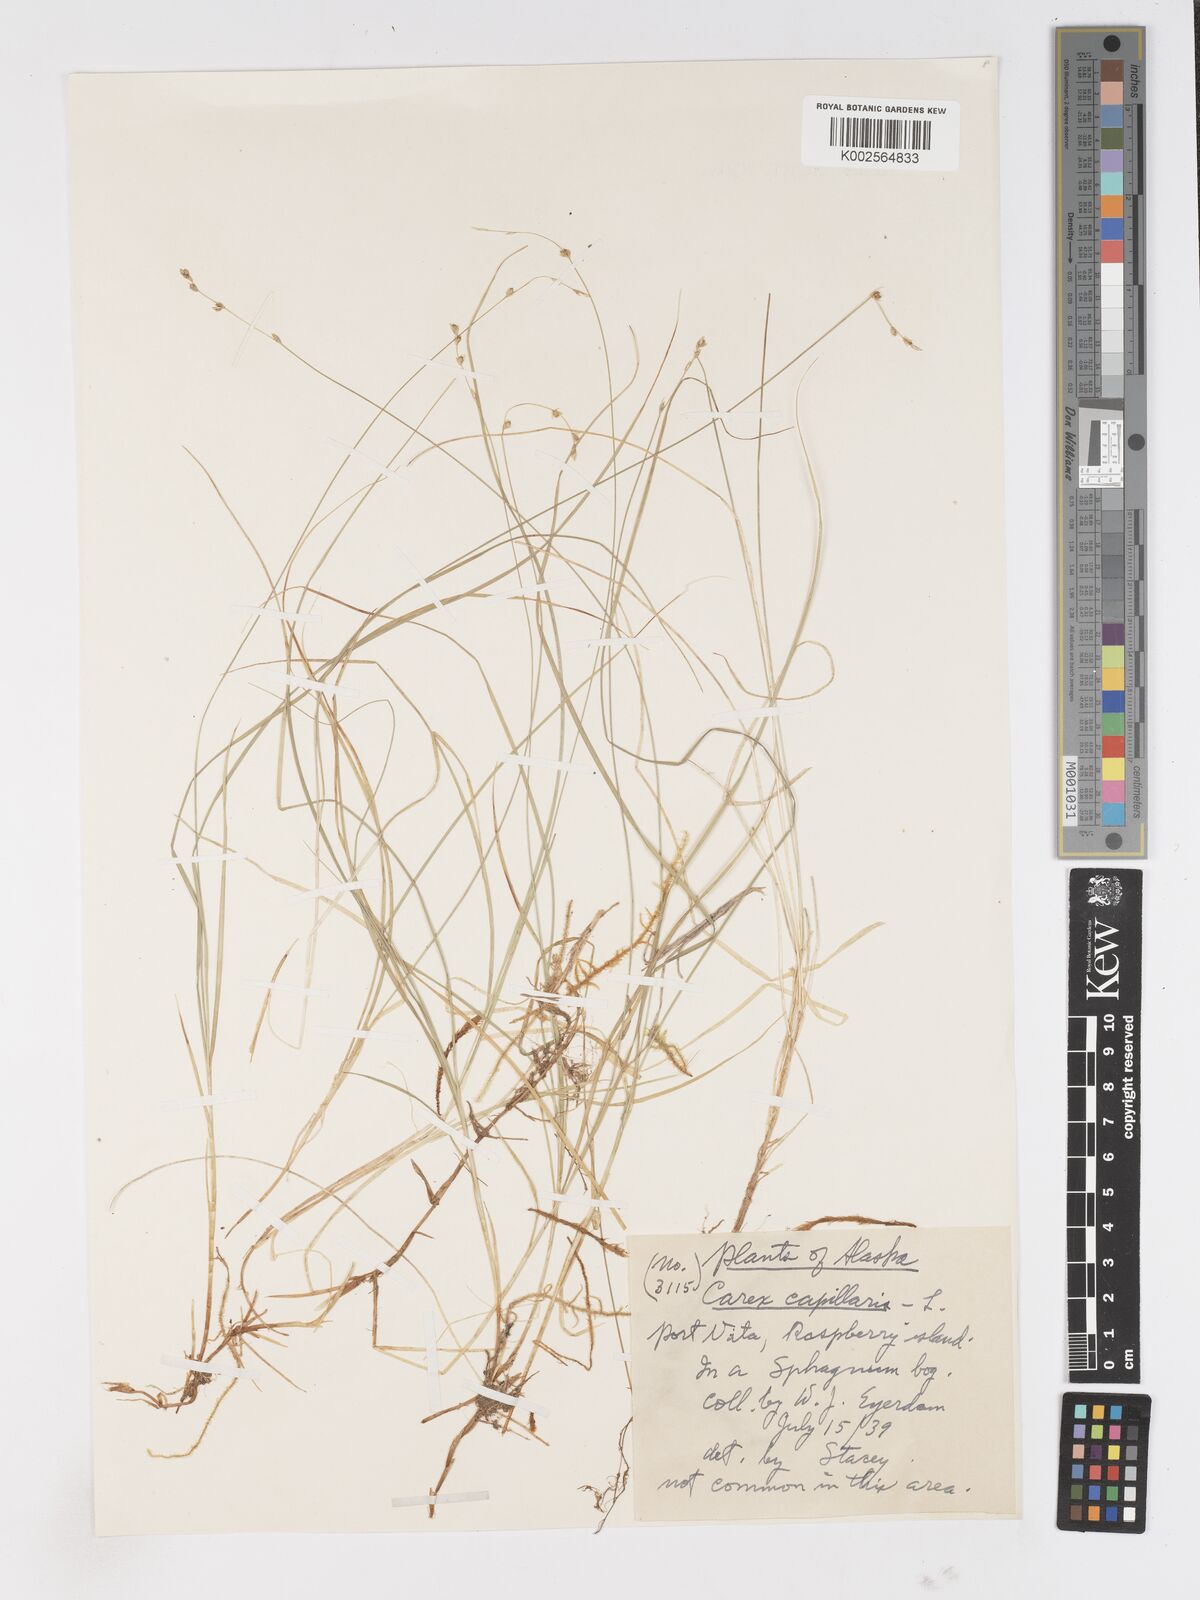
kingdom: Plantae
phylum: Tracheophyta
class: Liliopsida
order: Poales
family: Cyperaceae
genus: Carex
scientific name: Carex
